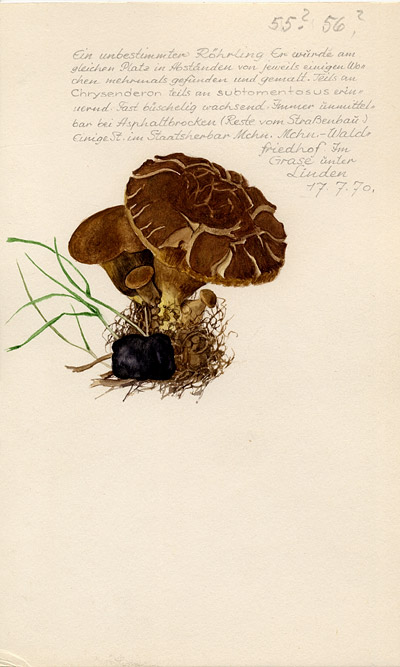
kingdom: Fungi
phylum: Basidiomycota
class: Agaricomycetes
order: Boletales
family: Boletaceae
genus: Xerocomus
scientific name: Xerocomus
